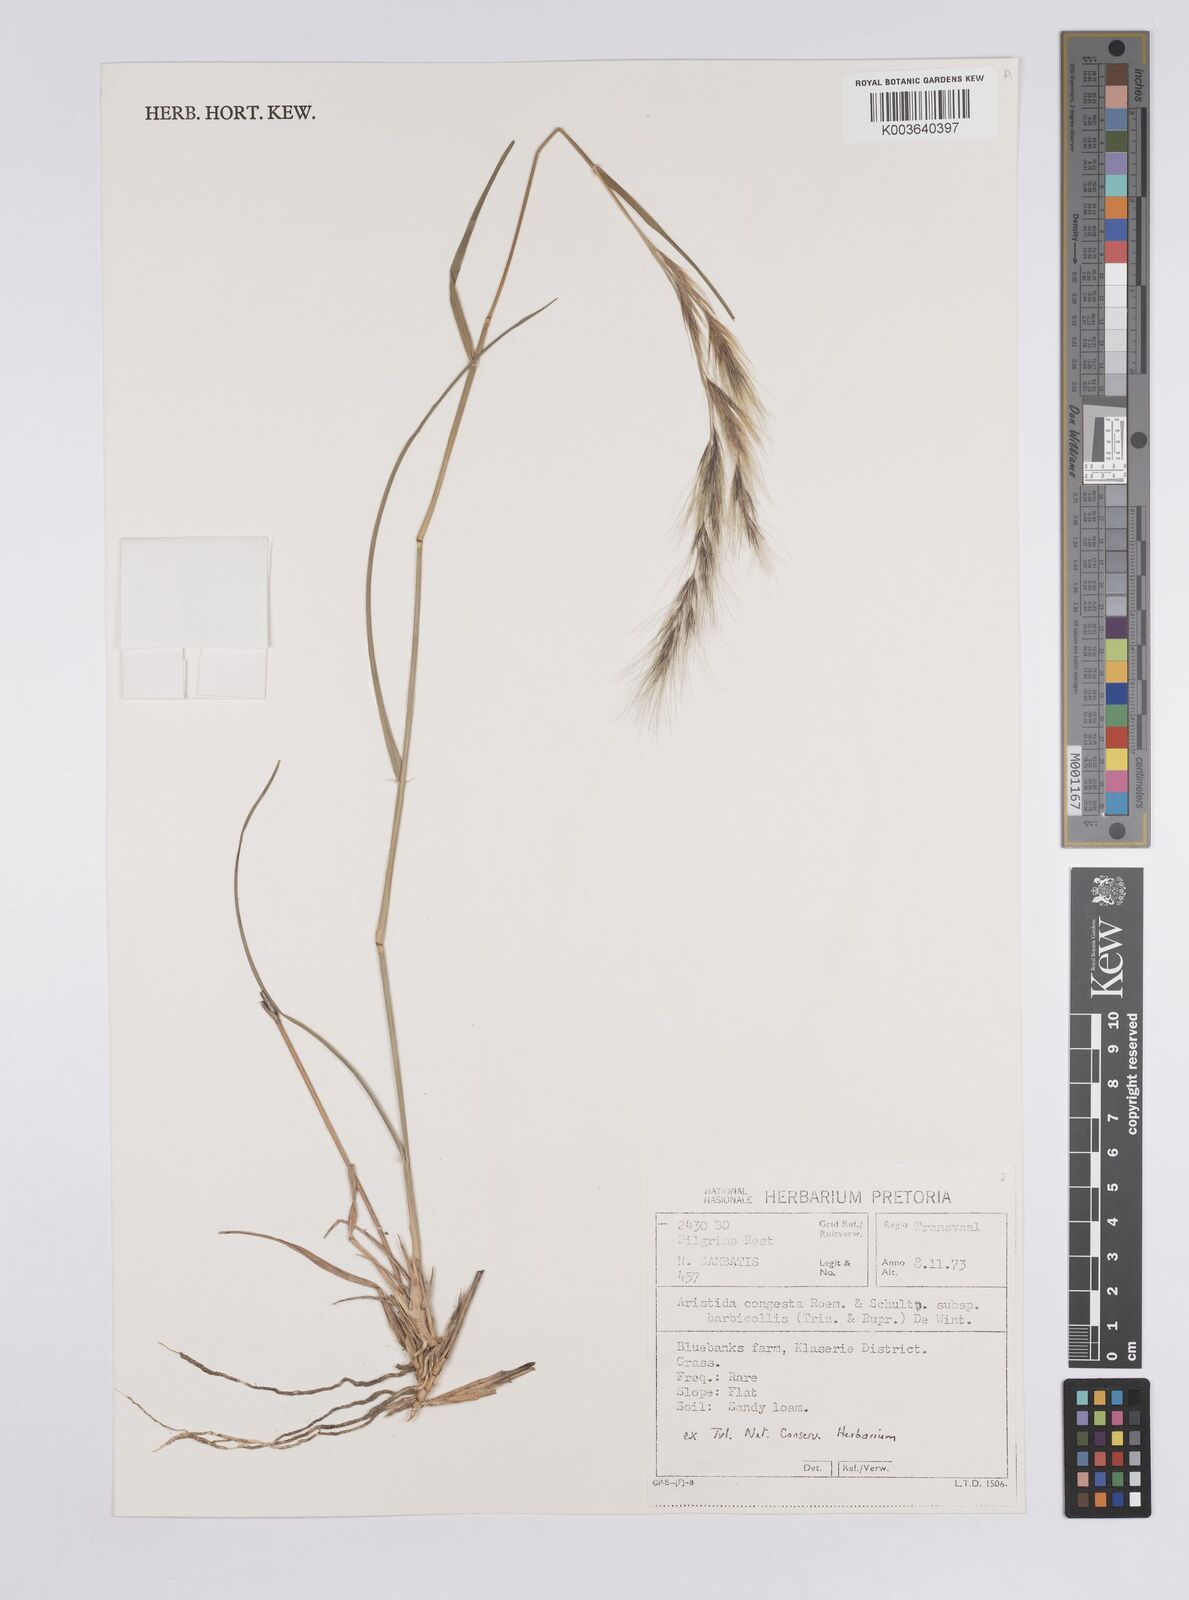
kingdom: Plantae
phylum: Tracheophyta
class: Liliopsida
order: Poales
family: Poaceae
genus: Aristida
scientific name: Aristida barbicollis
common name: Spreading prickle grass
